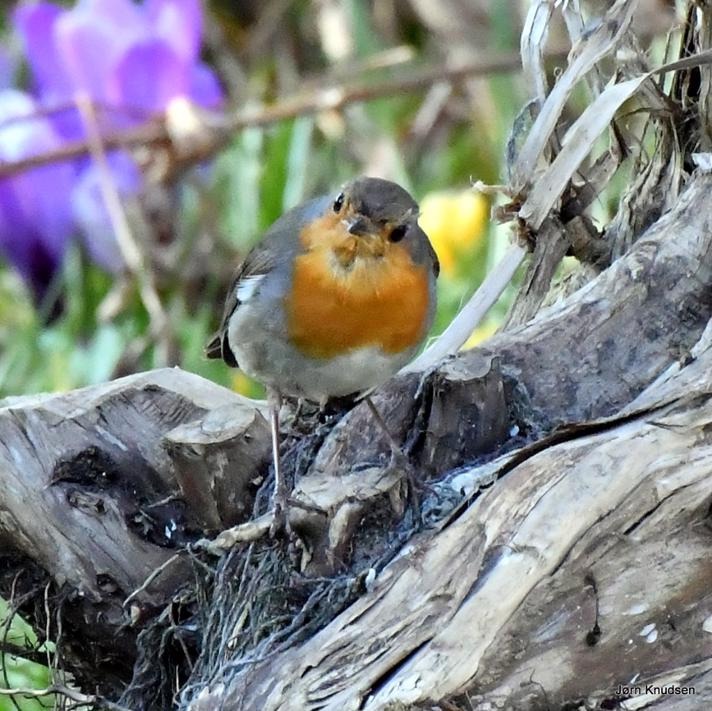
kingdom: Animalia
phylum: Chordata
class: Aves
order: Passeriformes
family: Muscicapidae
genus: Erithacus
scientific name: Erithacus rubecula
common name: Rødhals/rødkælk
